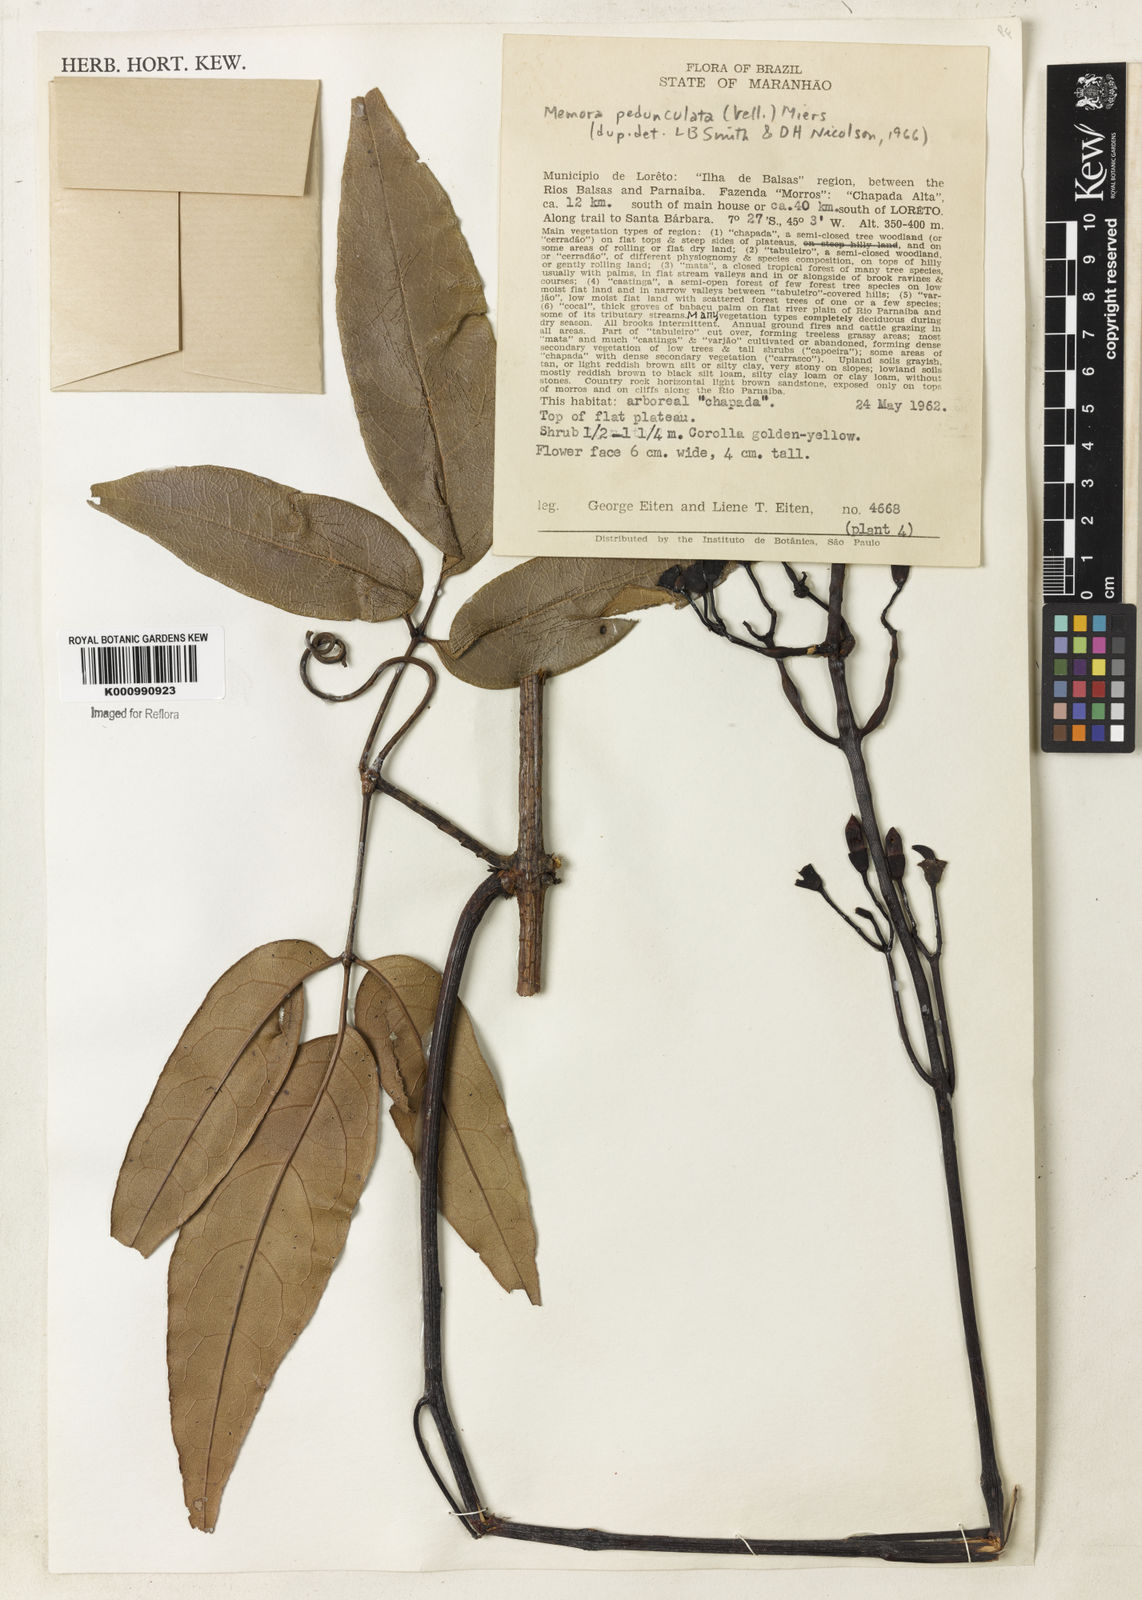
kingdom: Plantae
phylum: Tracheophyta
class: Magnoliopsida
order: Lamiales
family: Bignoniaceae
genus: Adenocalymma
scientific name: Adenocalymma pedunculatum
